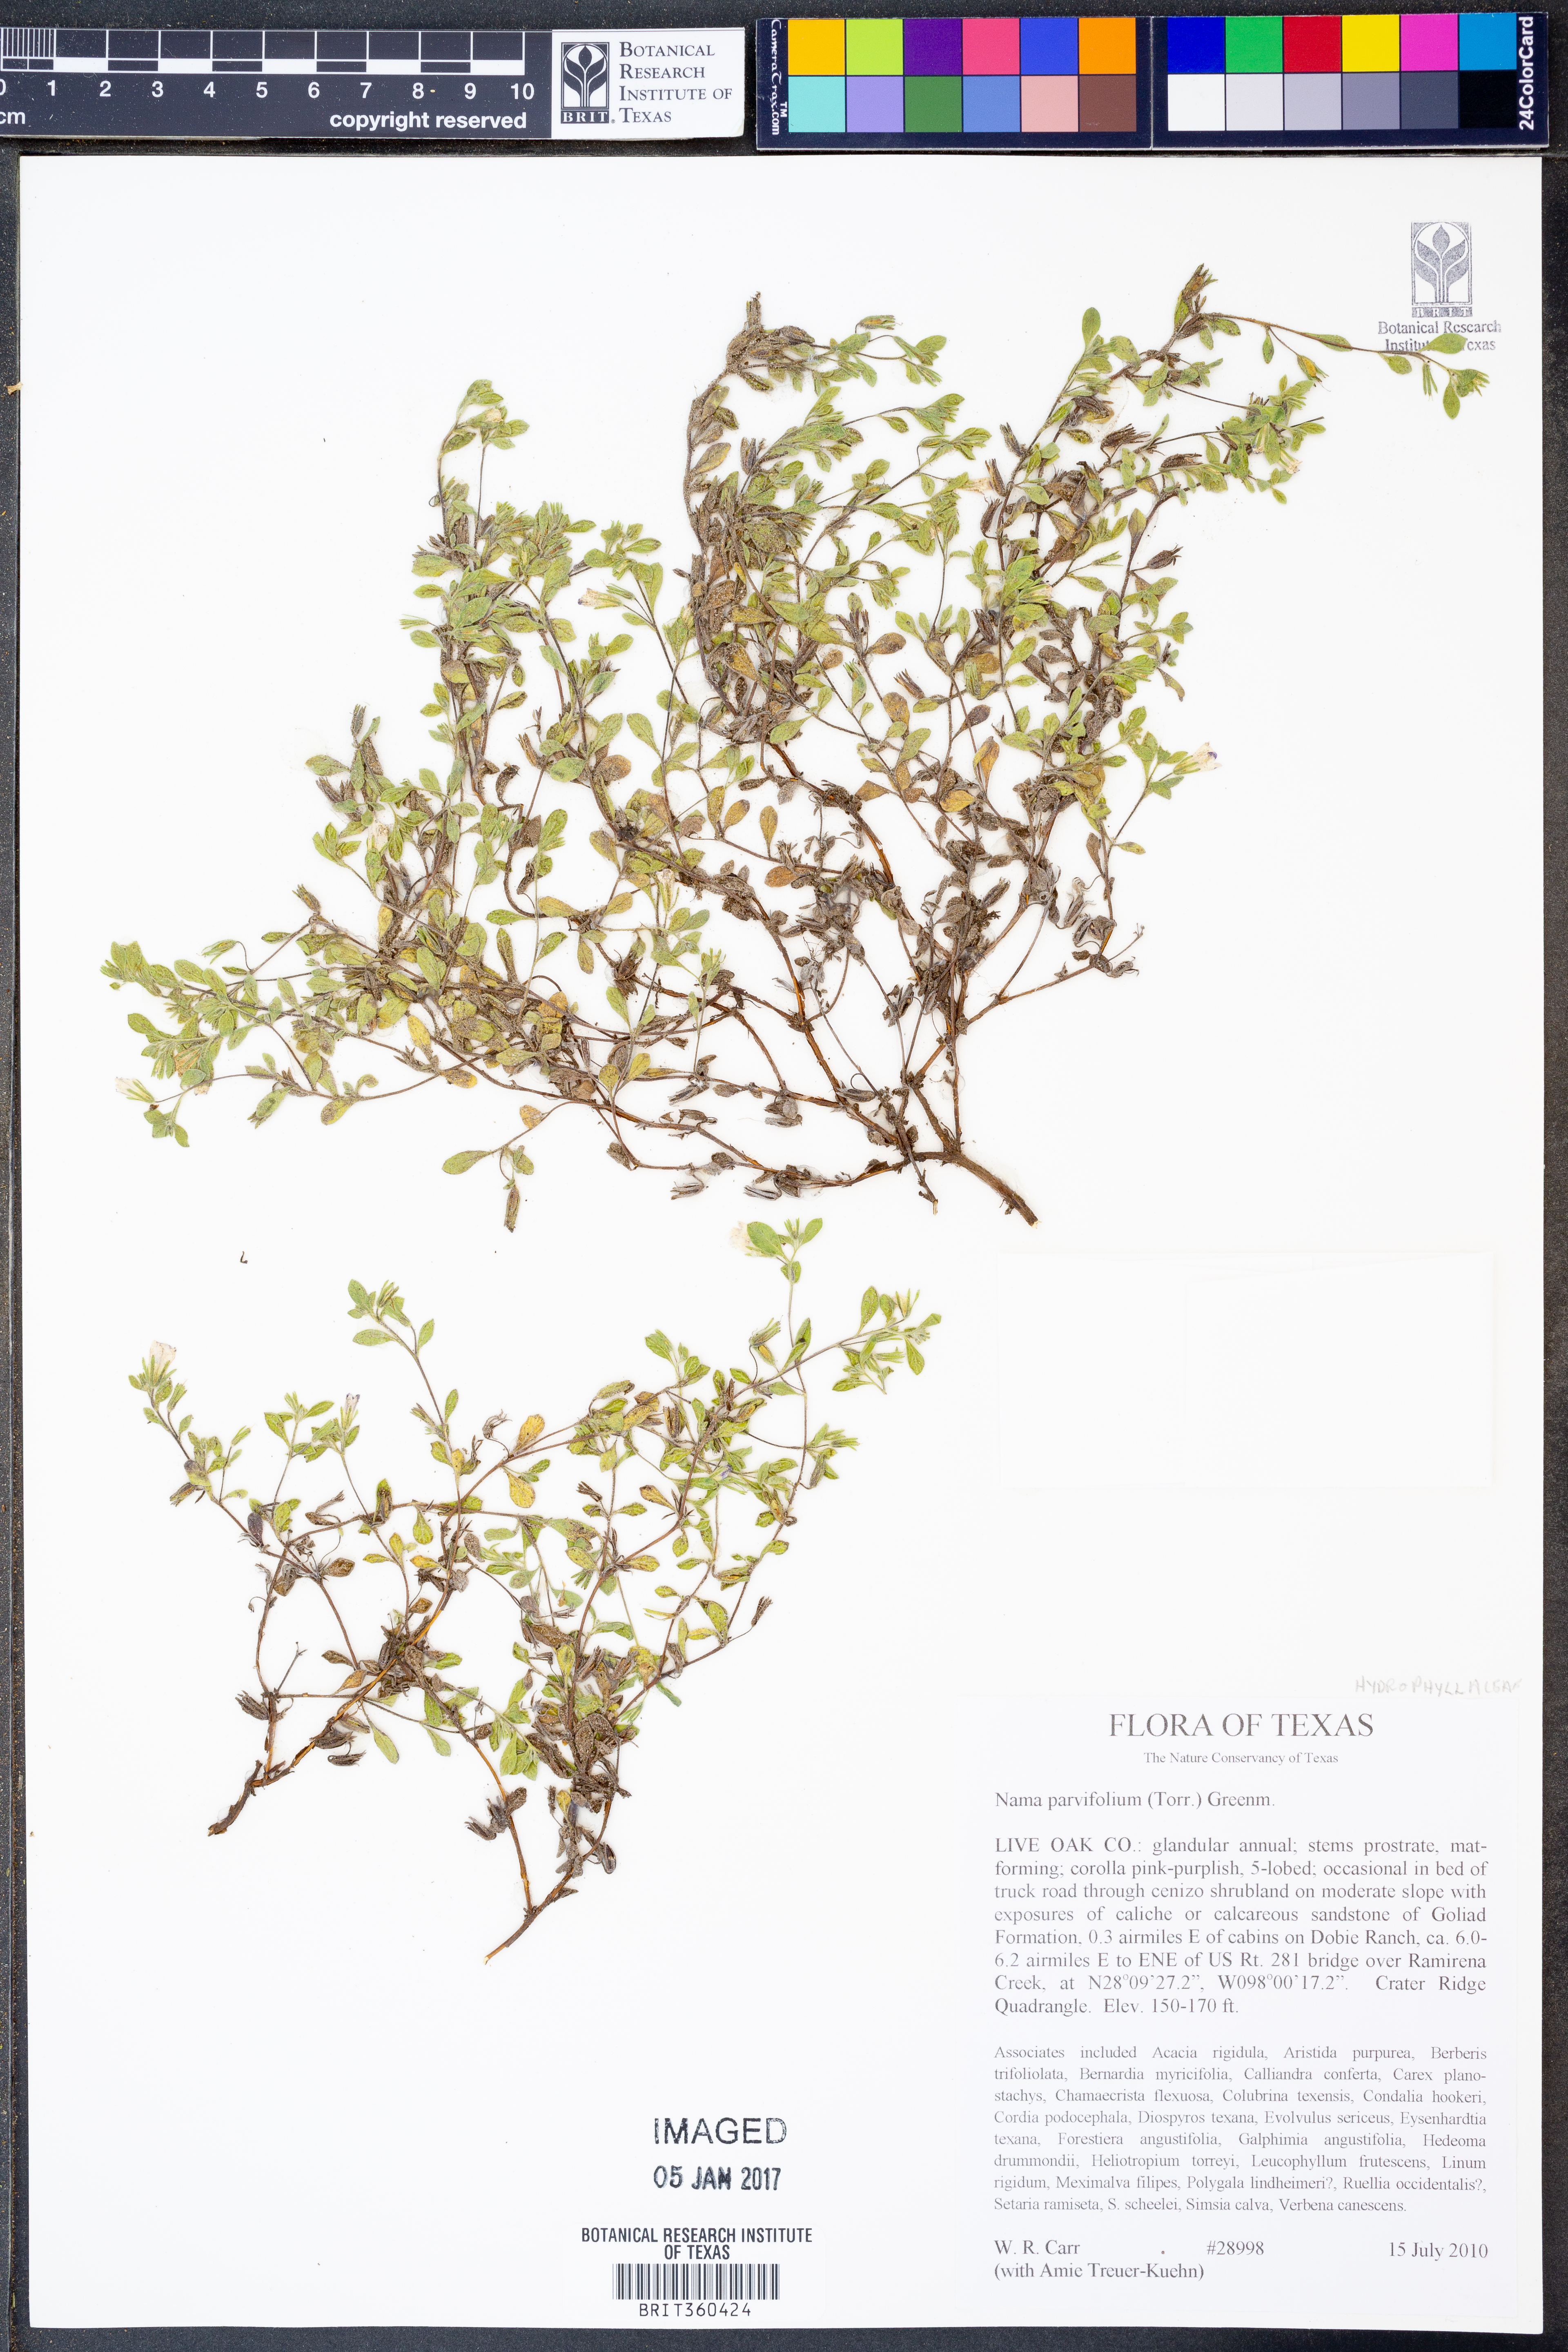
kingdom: Plantae
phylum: Tracheophyta
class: Magnoliopsida
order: Boraginales
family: Namaceae
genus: Nama
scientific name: Nama parvifolia
